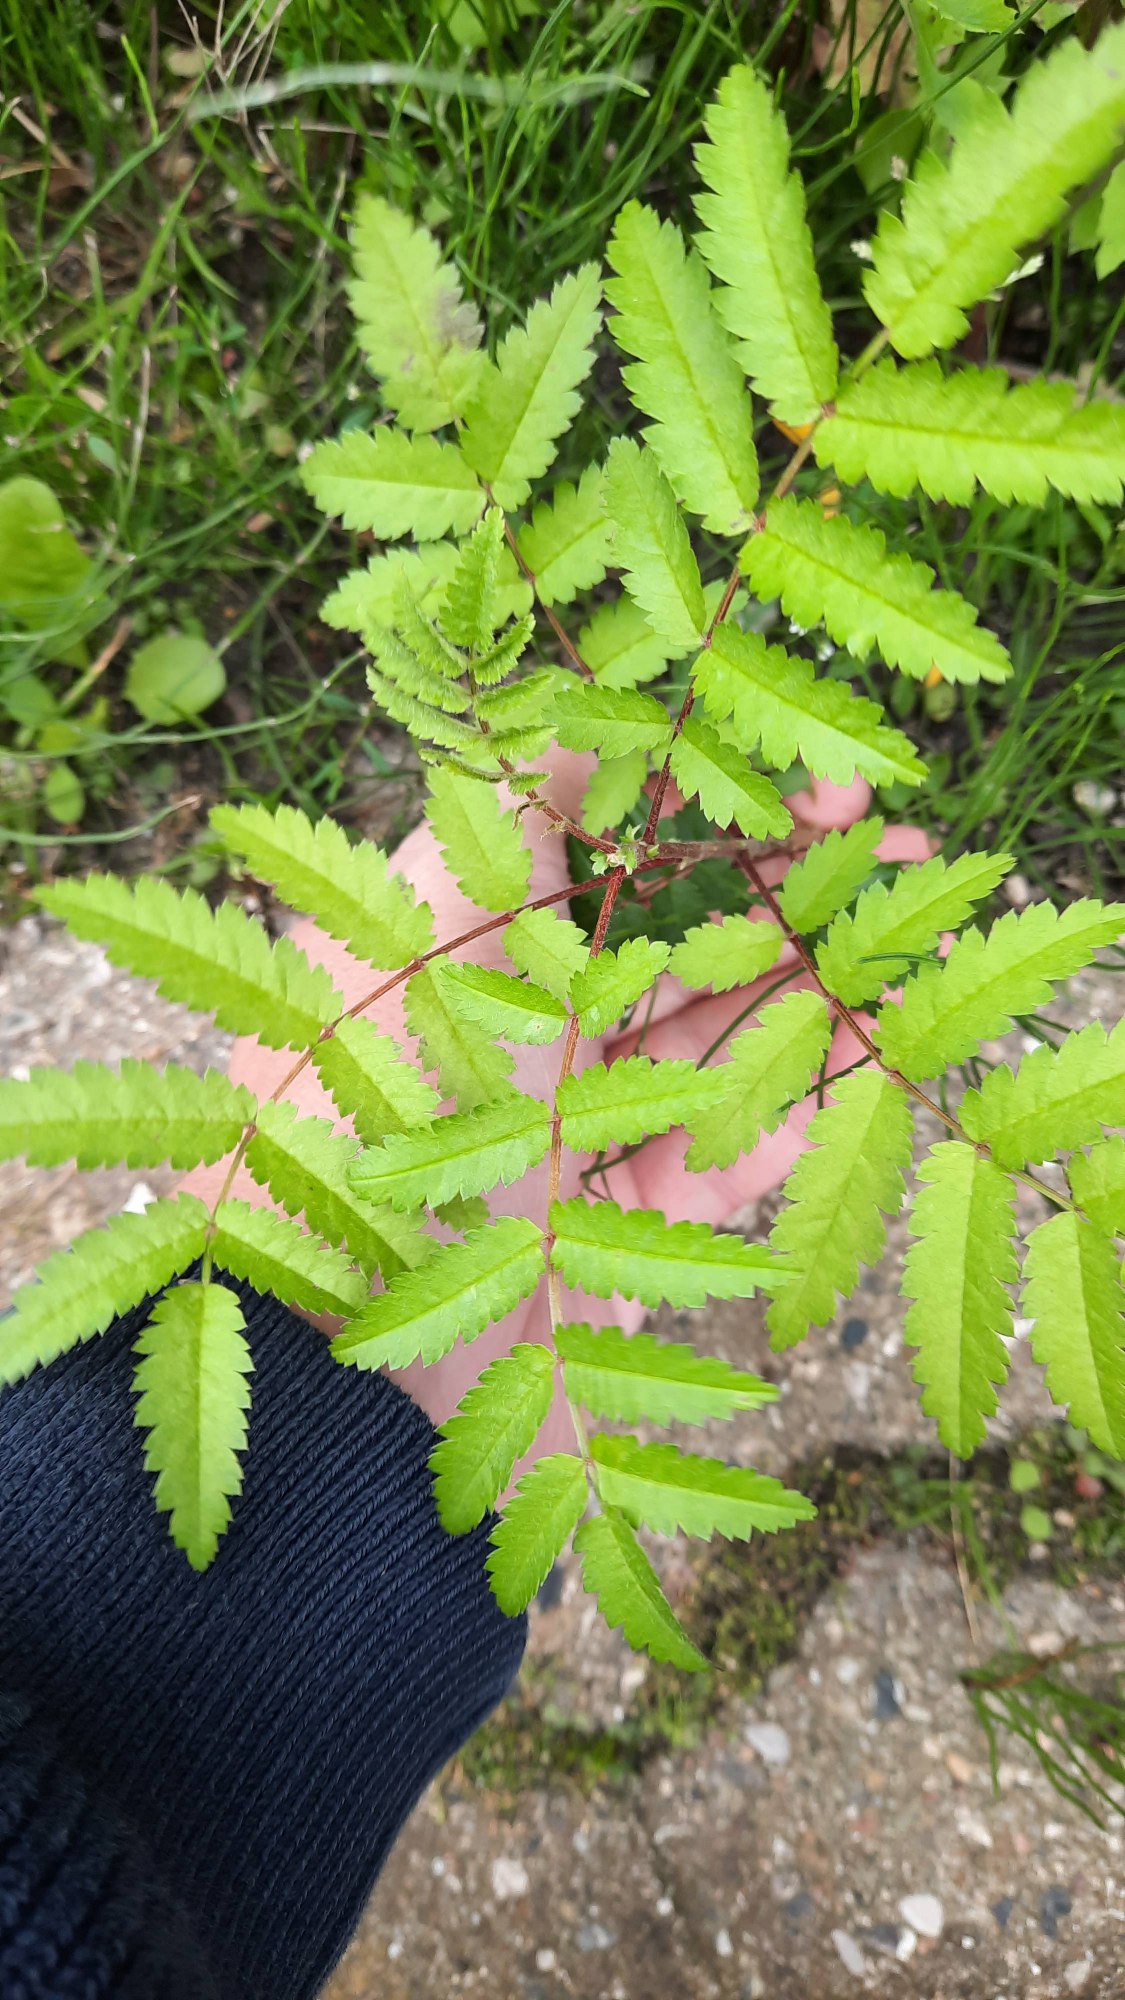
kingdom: Plantae
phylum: Tracheophyta
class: Magnoliopsida
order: Rosales
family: Rosaceae
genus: Sorbus
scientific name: Sorbus aucuparia
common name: Almindelig røn
